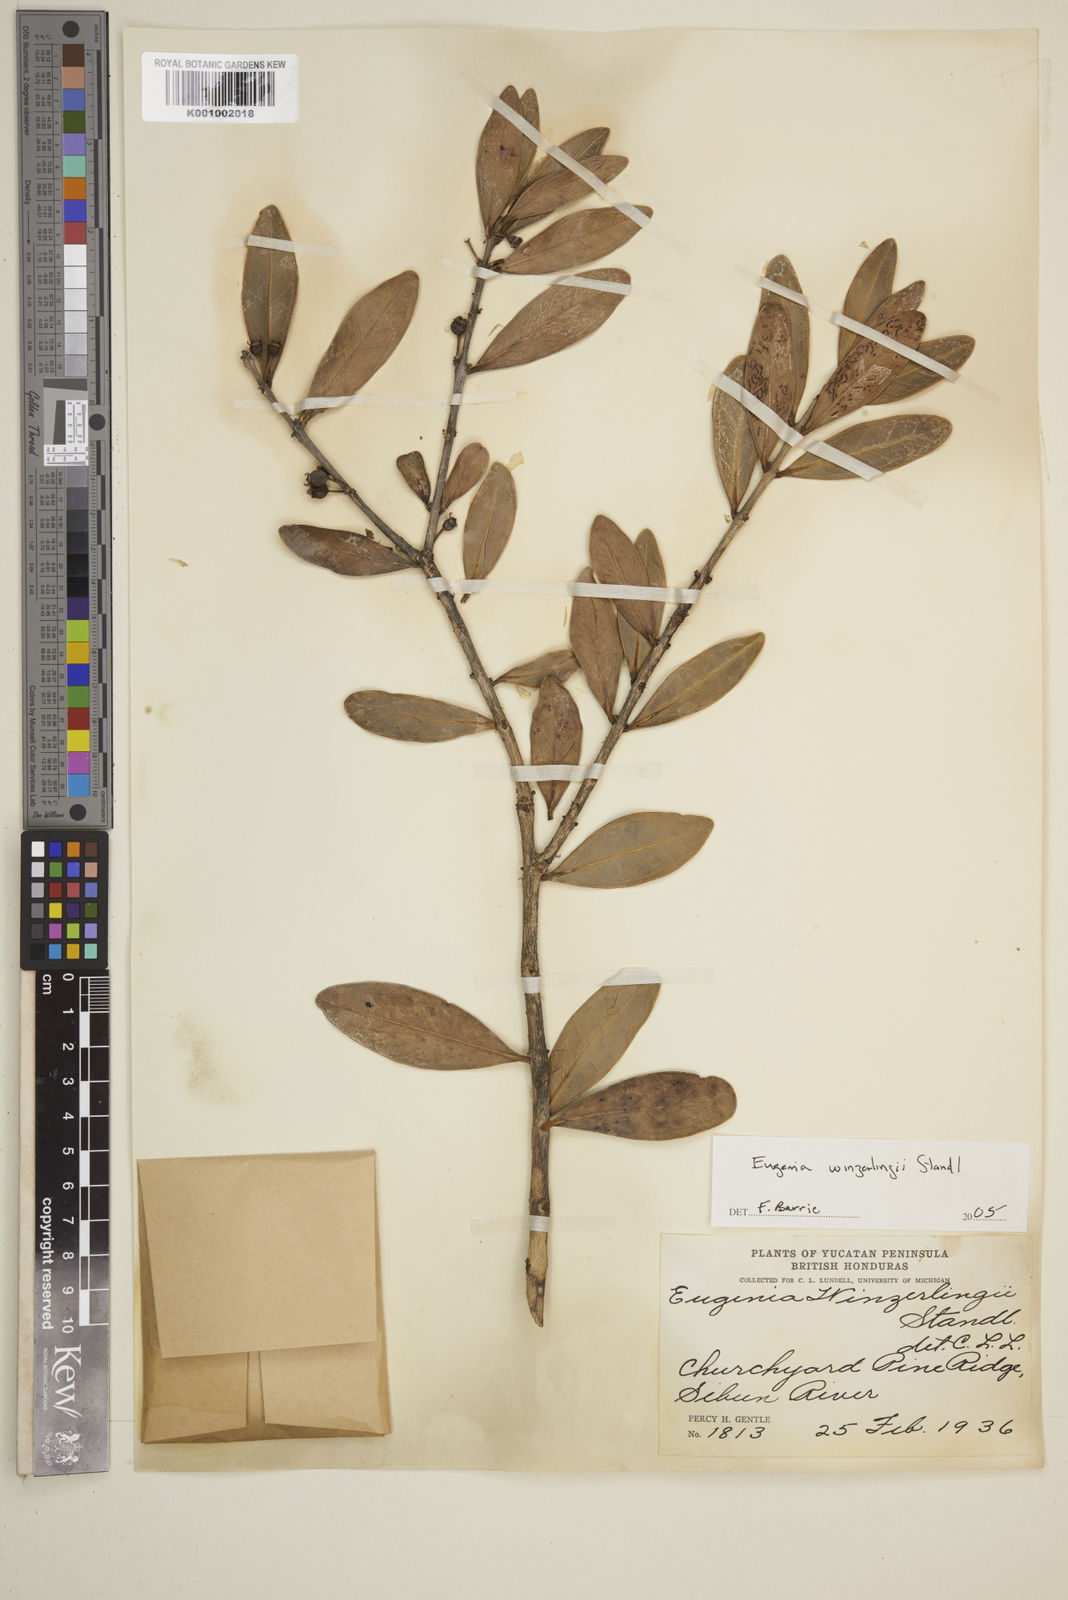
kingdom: Plantae
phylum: Tracheophyta
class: Magnoliopsida
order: Myrtales
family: Myrtaceae
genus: Eugenia
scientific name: Eugenia winzerlingii
